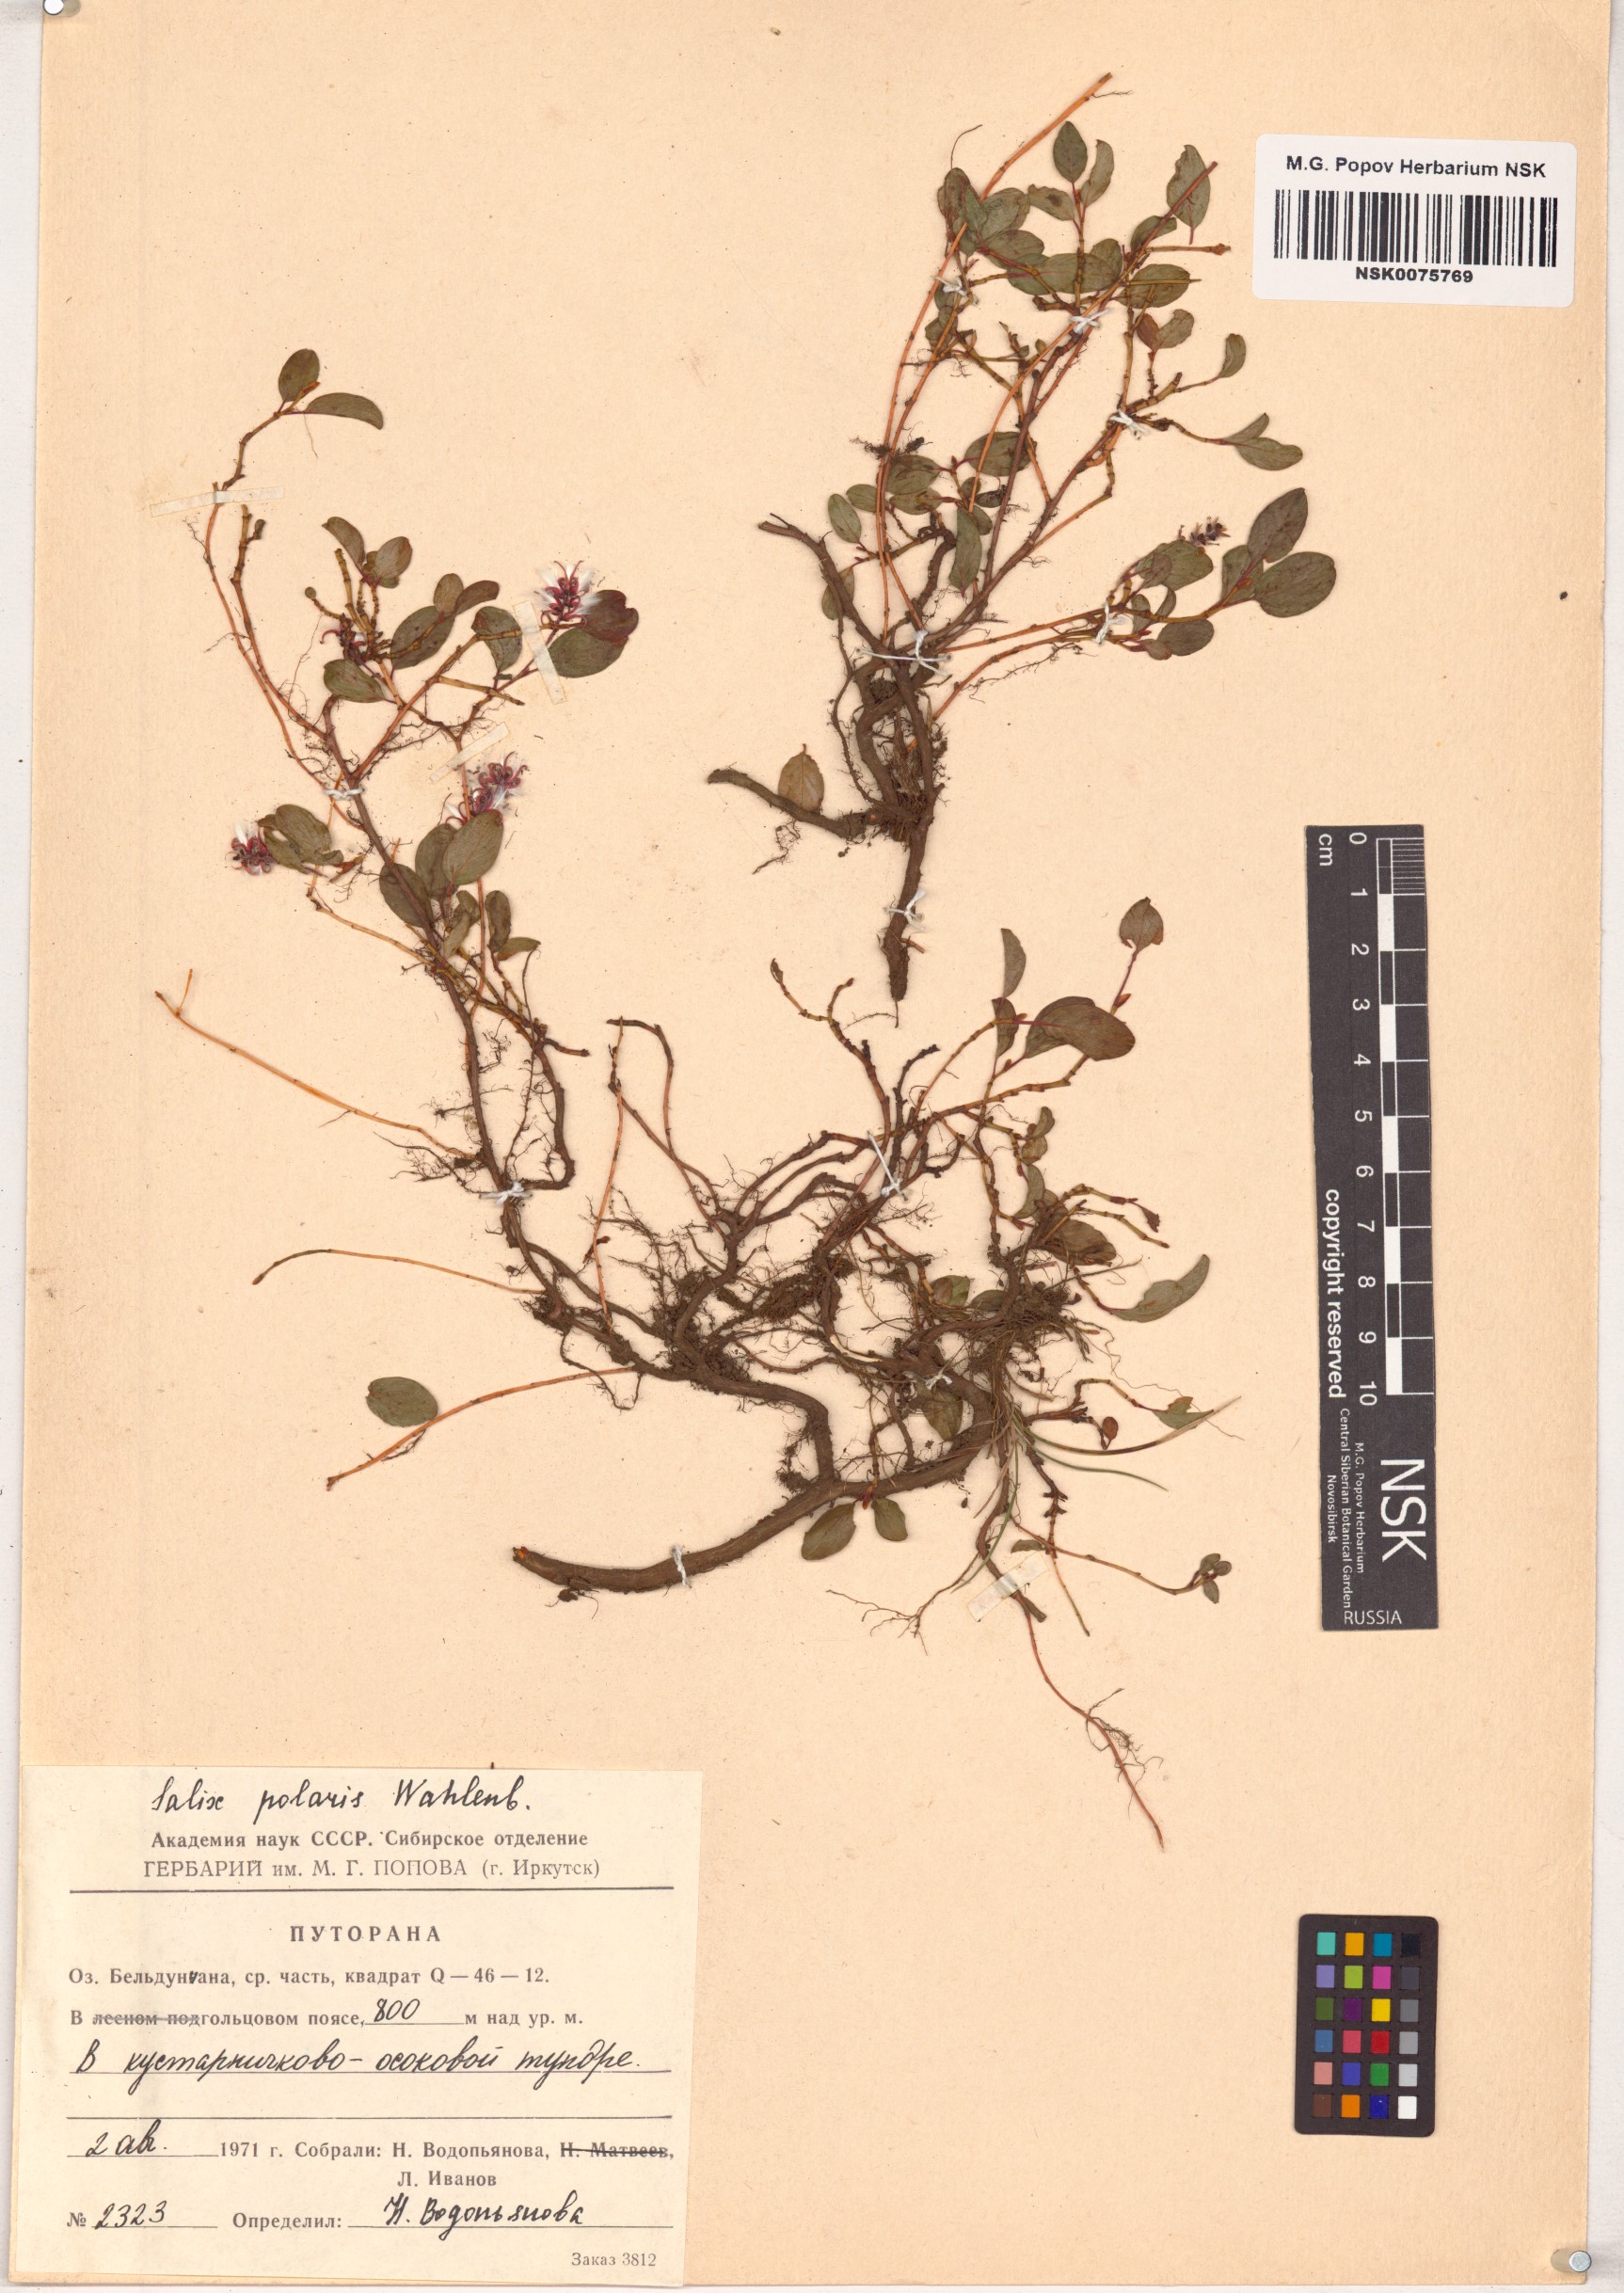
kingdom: Plantae
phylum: Tracheophyta
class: Magnoliopsida
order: Malpighiales
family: Salicaceae
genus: Salix
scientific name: Salix polaris
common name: Polar willow
